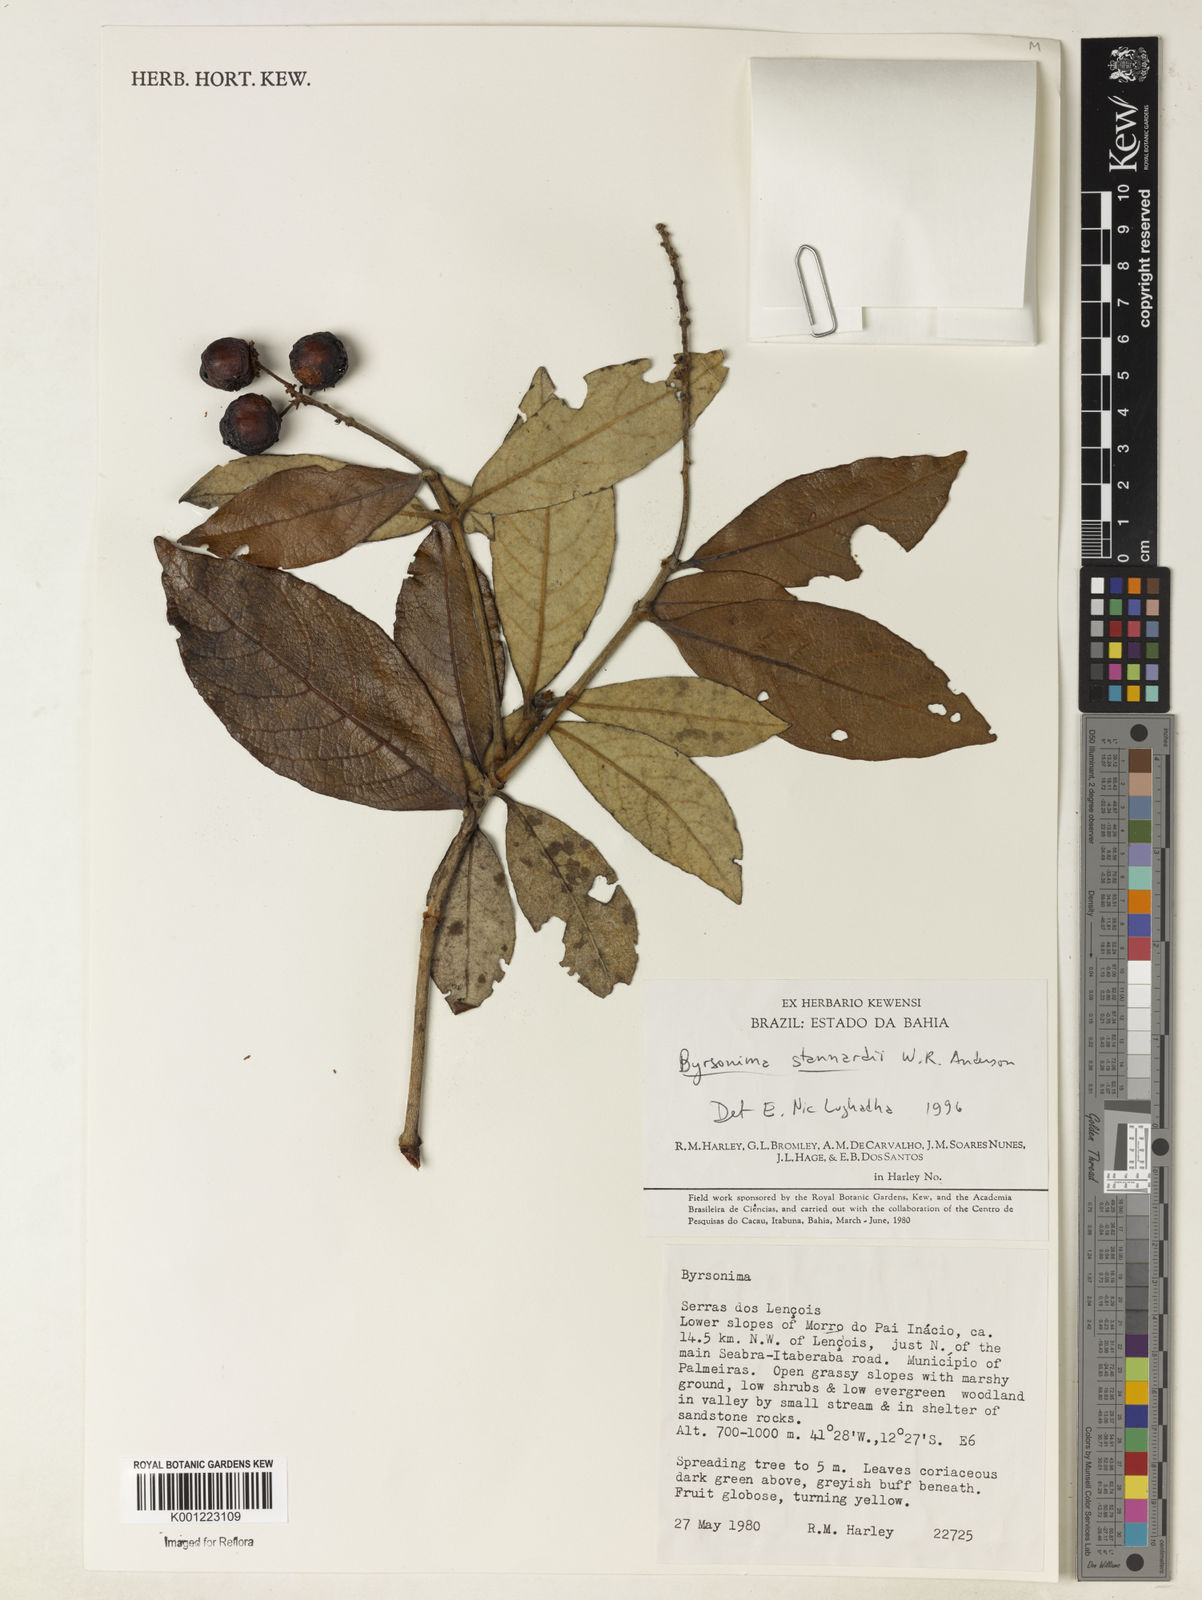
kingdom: Plantae
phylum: Tracheophyta
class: Magnoliopsida
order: Malpighiales
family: Malpighiaceae
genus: Byrsonima
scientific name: Byrsonima stannardii
